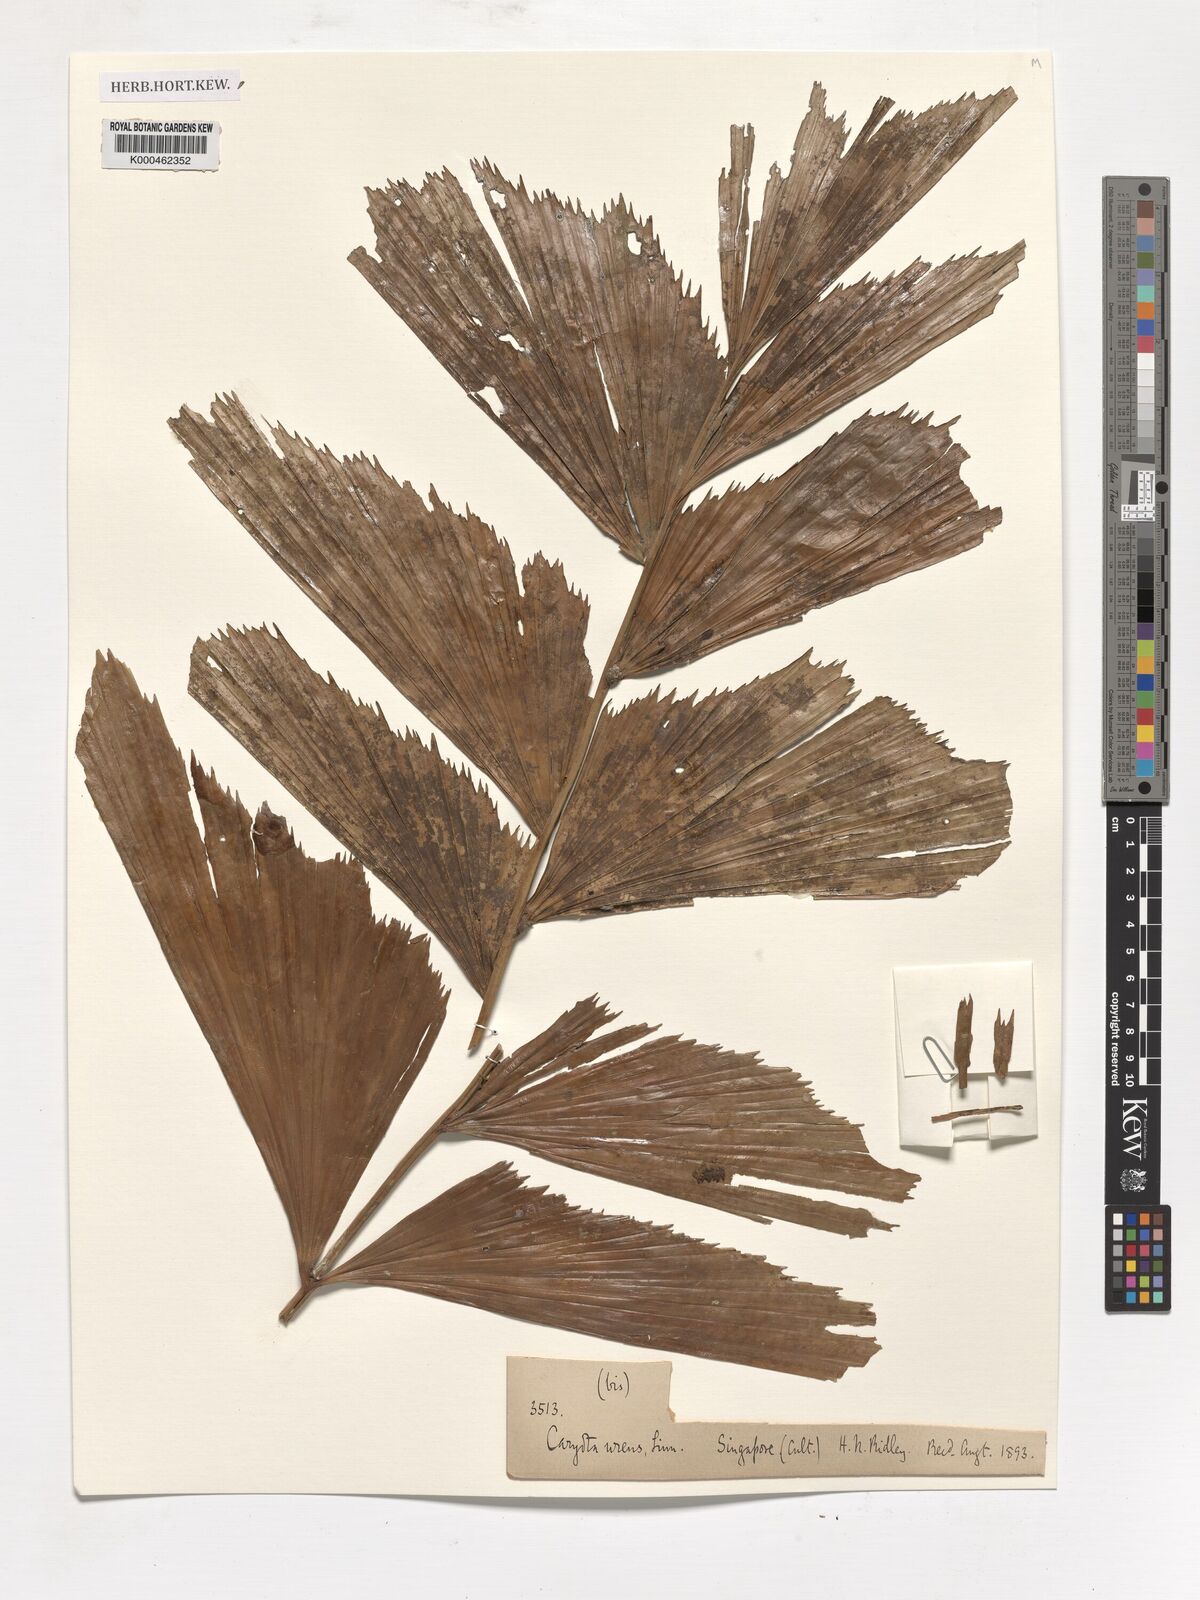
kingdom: Plantae
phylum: Tracheophyta
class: Liliopsida
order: Arecales
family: Arecaceae
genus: Caryota
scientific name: Caryota urens
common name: Jaggery palm
